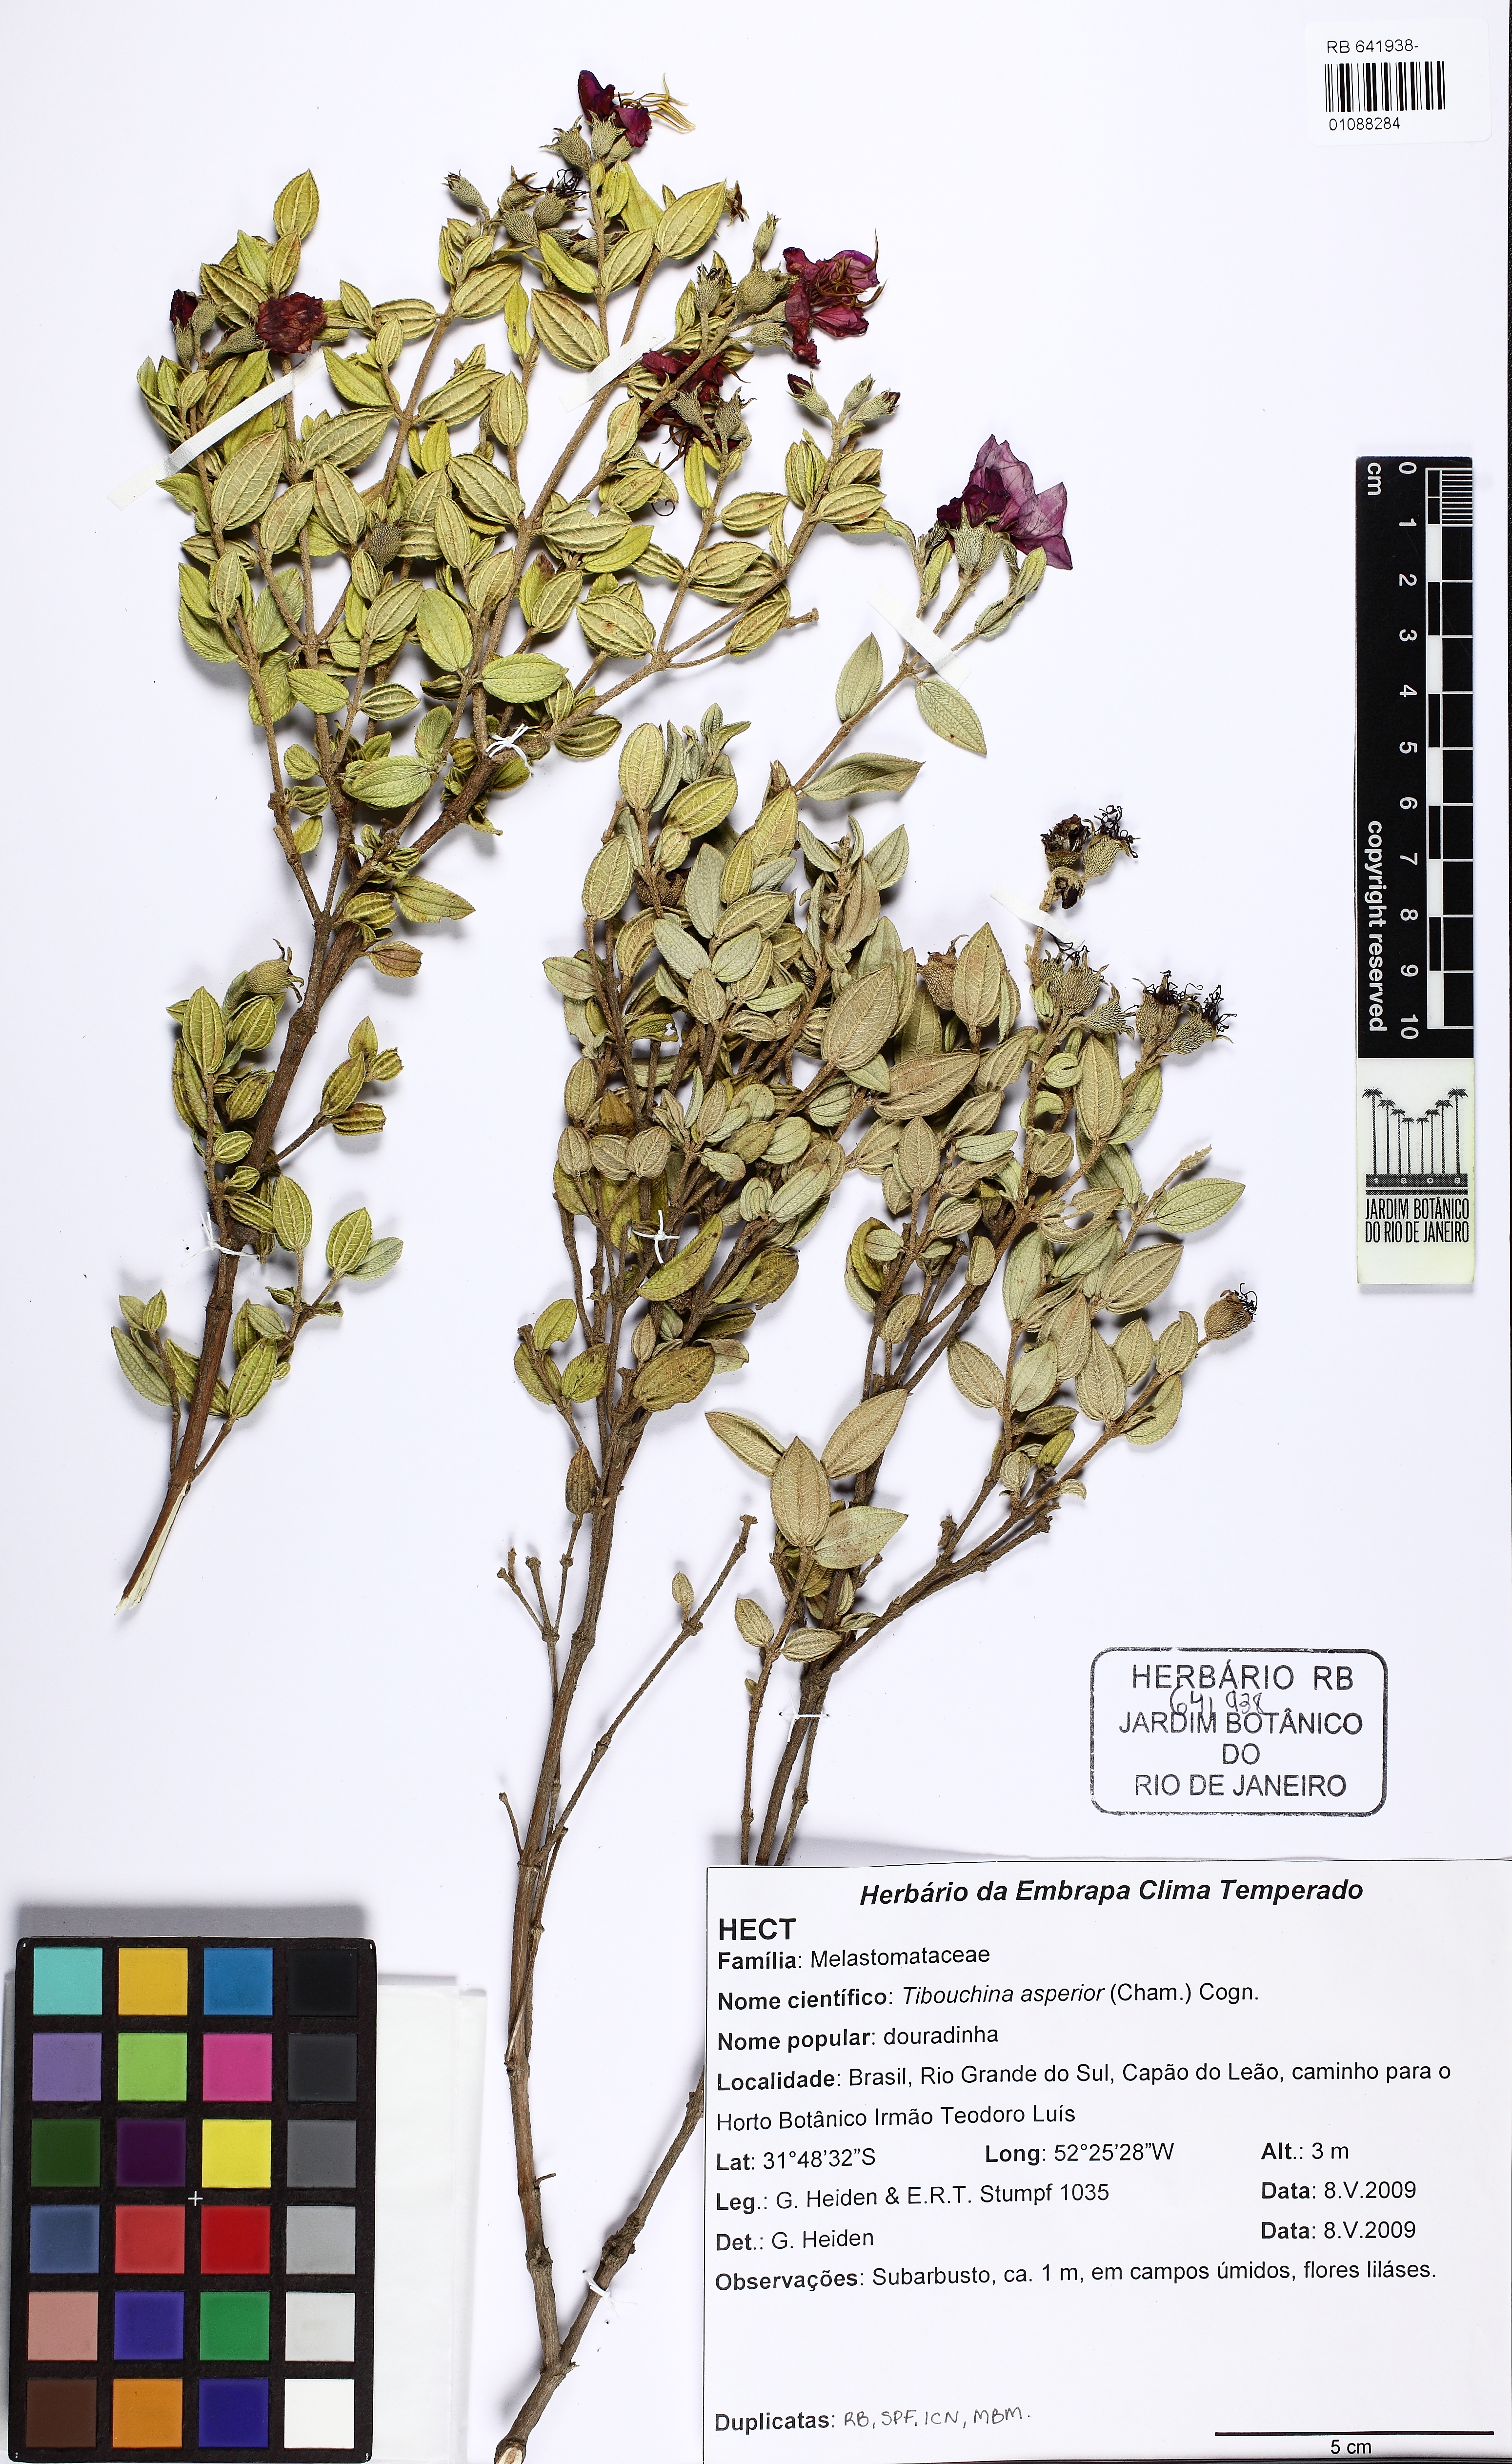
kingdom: Plantae
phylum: Tracheophyta
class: Magnoliopsida
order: Myrtales
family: Melastomataceae
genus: Pleroma
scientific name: Pleroma asperius
